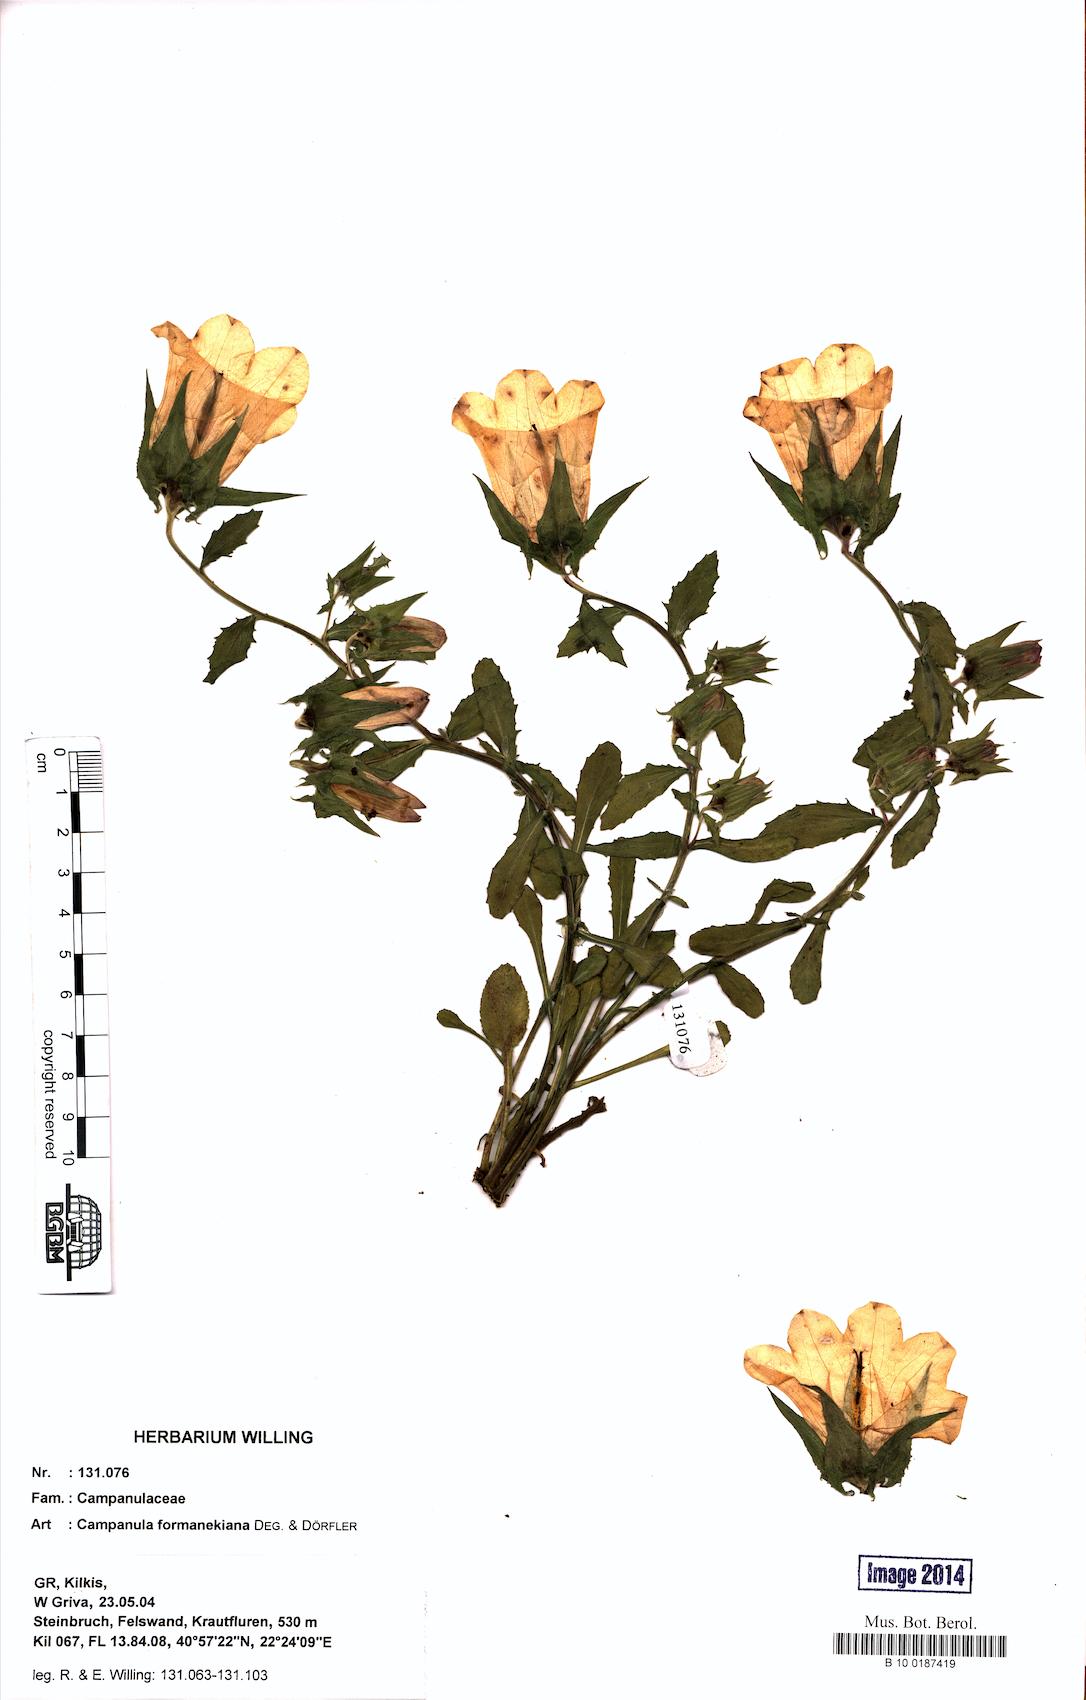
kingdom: Plantae
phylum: Tracheophyta
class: Magnoliopsida
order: Asterales
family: Campanulaceae
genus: Campanula
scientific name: Campanula formanekiana
